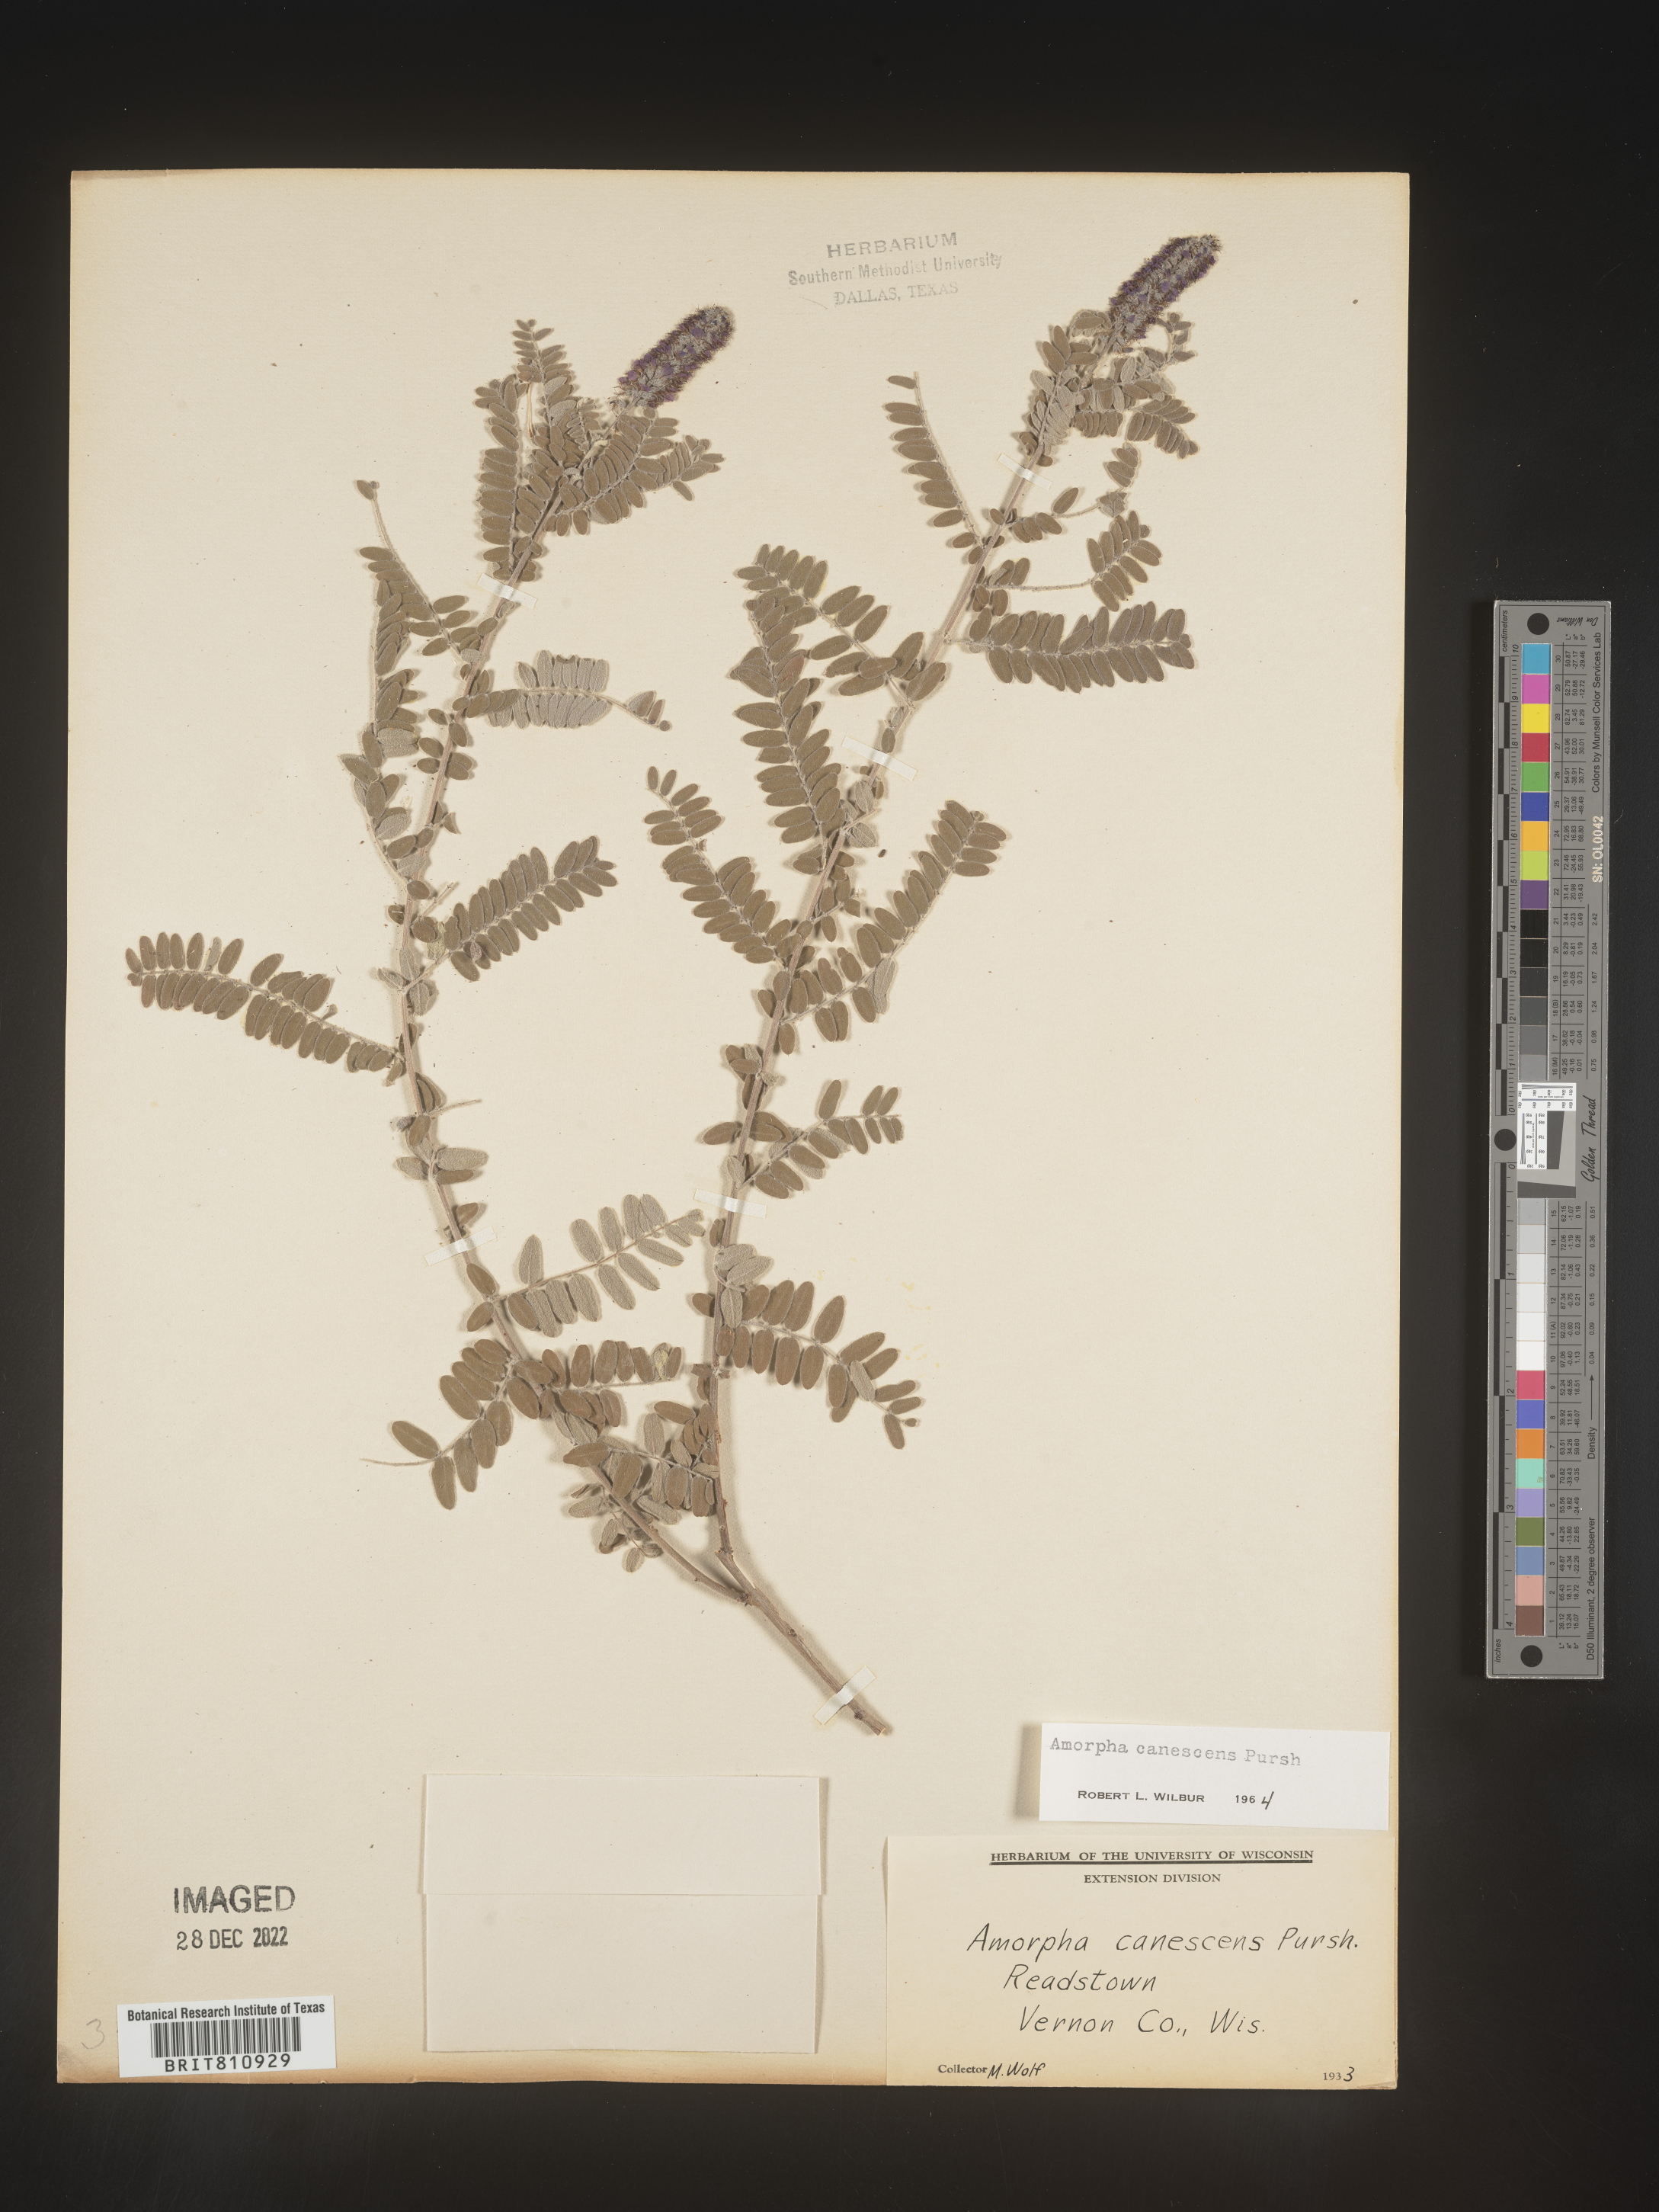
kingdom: Plantae
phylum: Tracheophyta
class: Magnoliopsida
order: Fabales
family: Fabaceae
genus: Amorpha
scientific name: Amorpha canescens
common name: Leadplant
